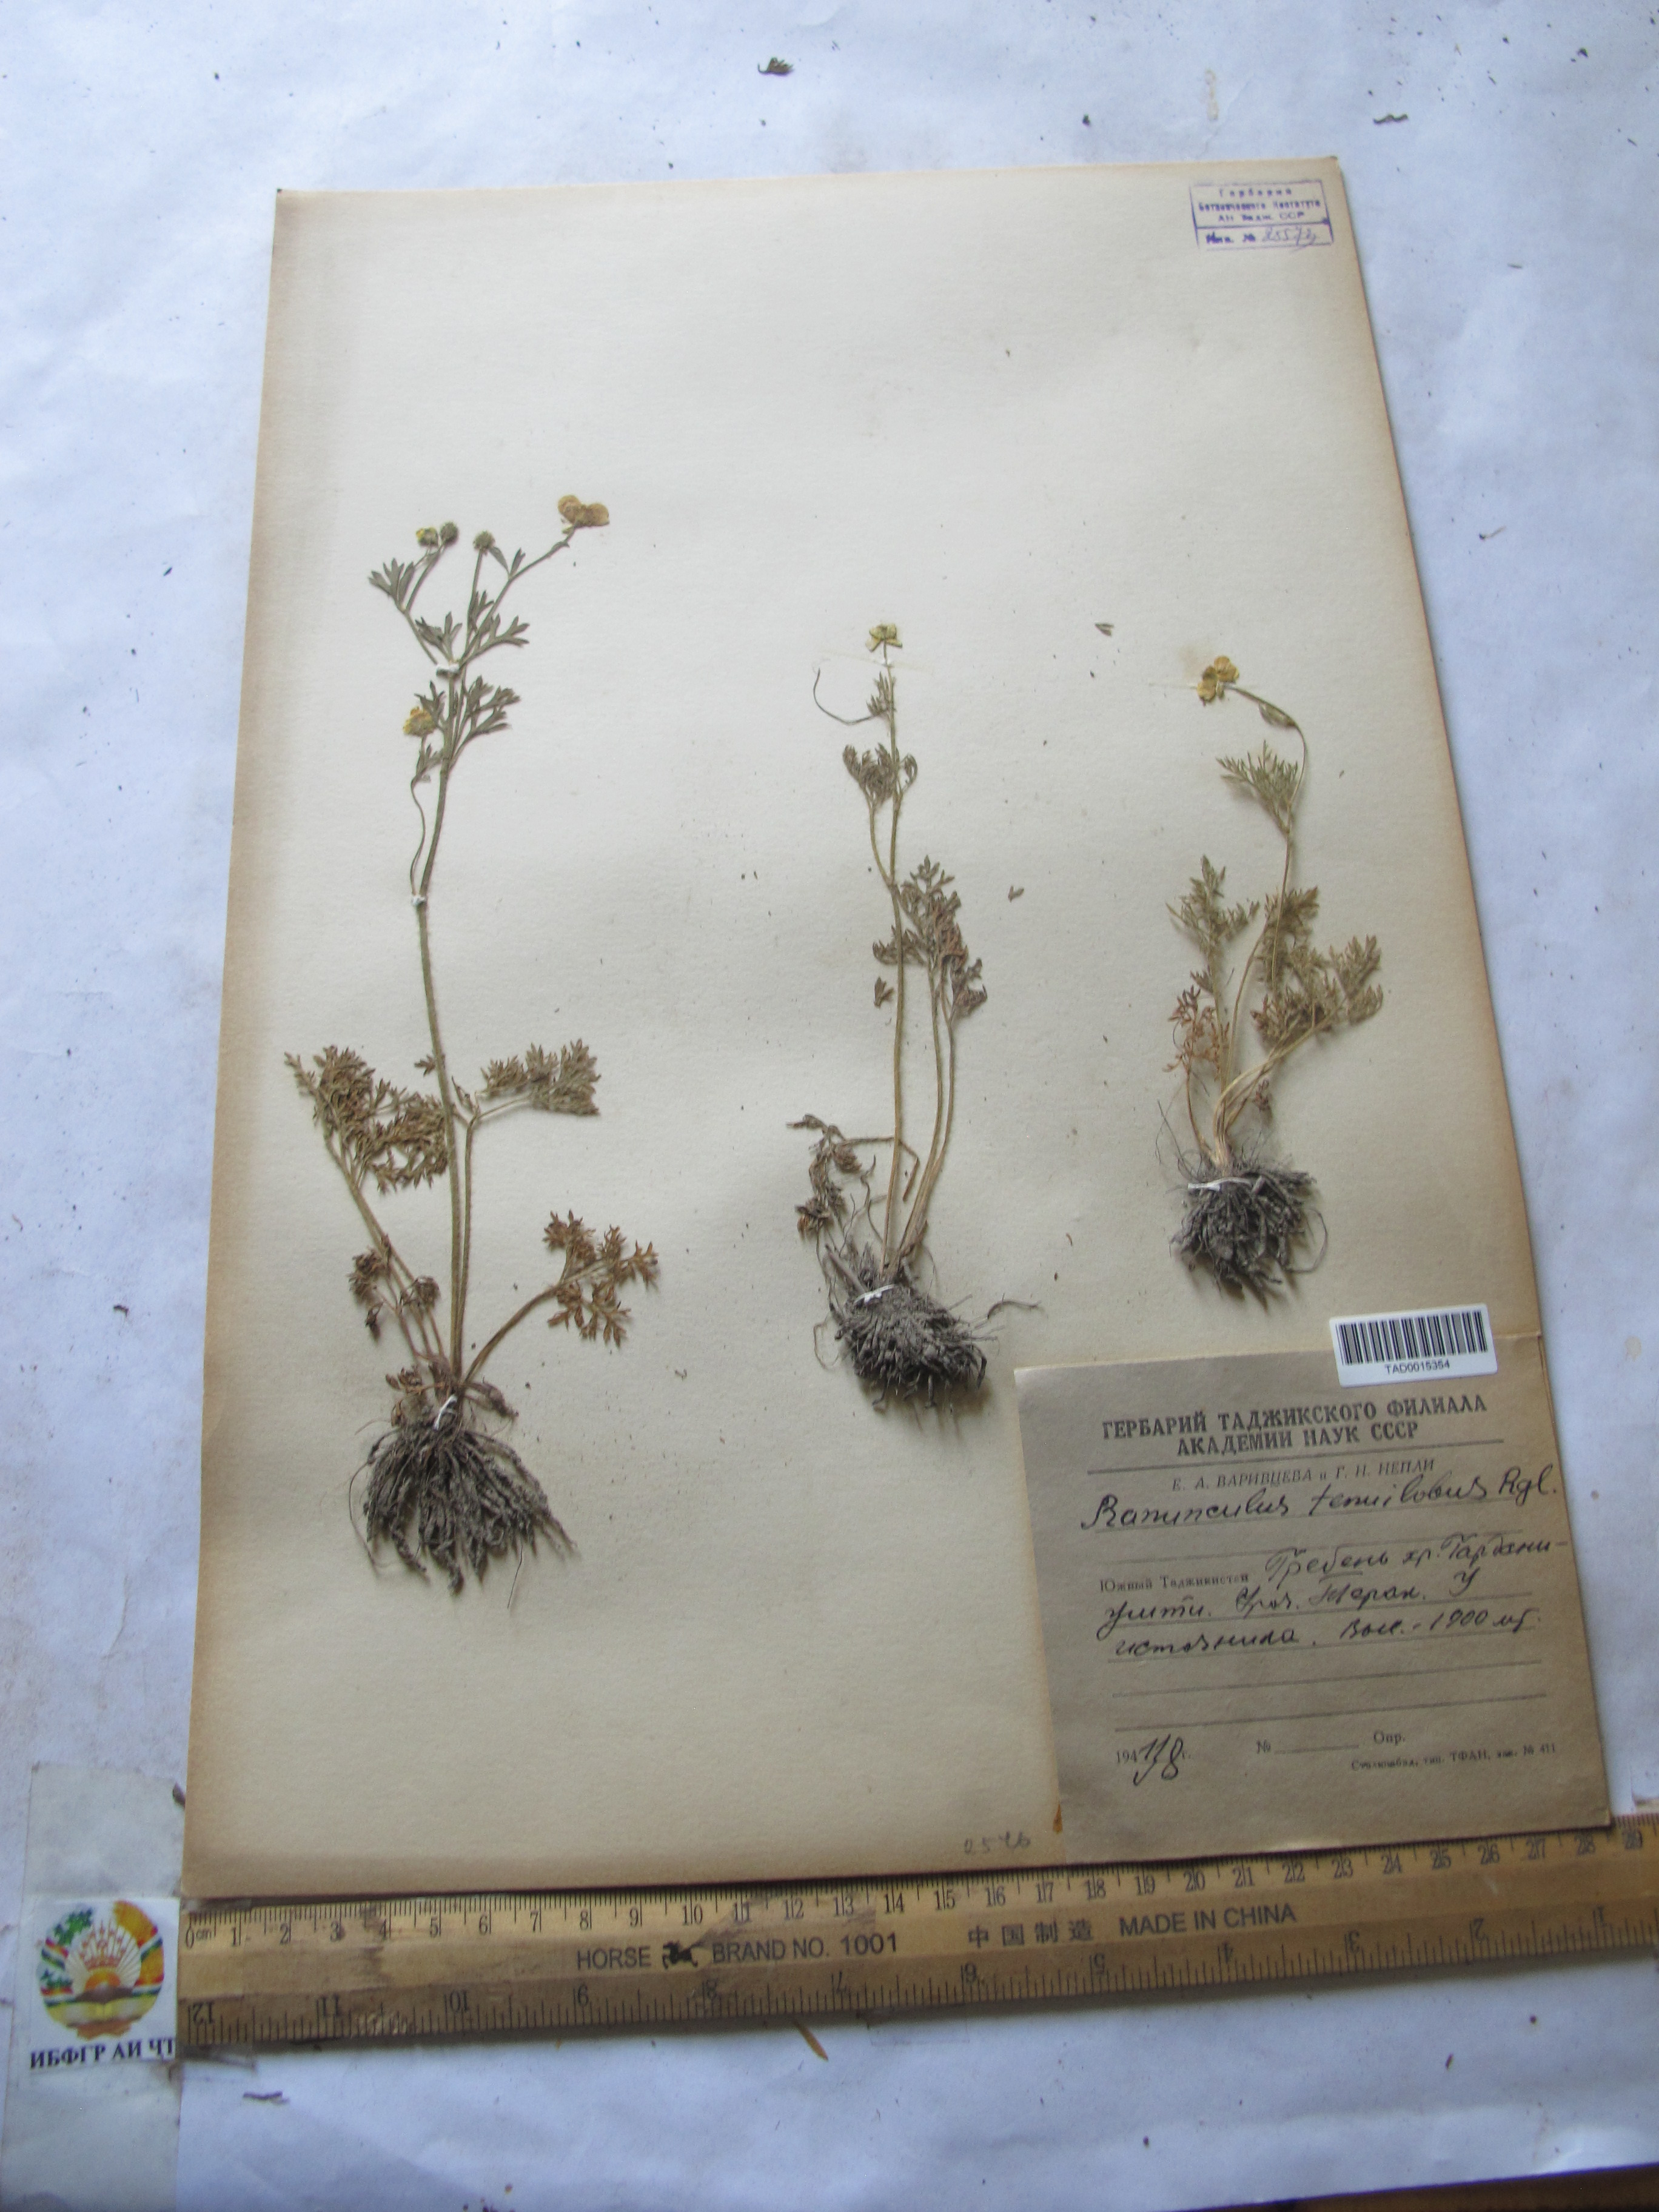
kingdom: Plantae
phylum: Tracheophyta
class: Magnoliopsida
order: Ranunculales
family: Ranunculaceae
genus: Ranunculus
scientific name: Ranunculus tenuilobus
